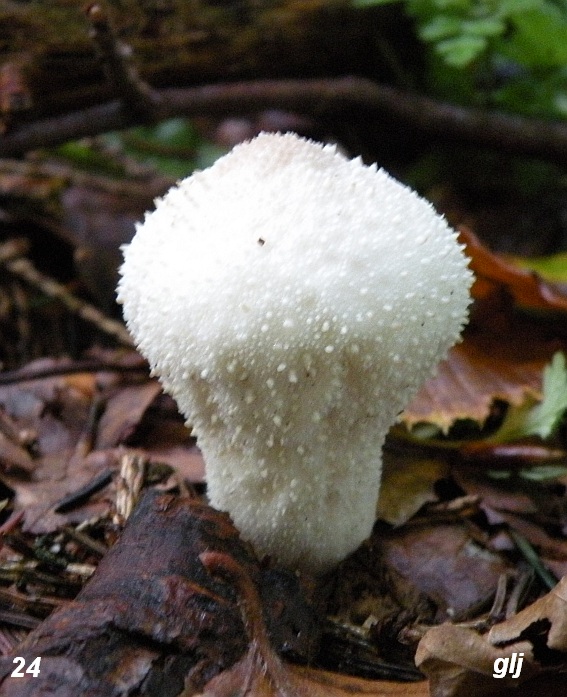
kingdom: Fungi
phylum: Basidiomycota
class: Agaricomycetes
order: Agaricales
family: Lycoperdaceae
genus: Lycoperdon
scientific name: Lycoperdon perlatum
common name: krystal-støvbold
